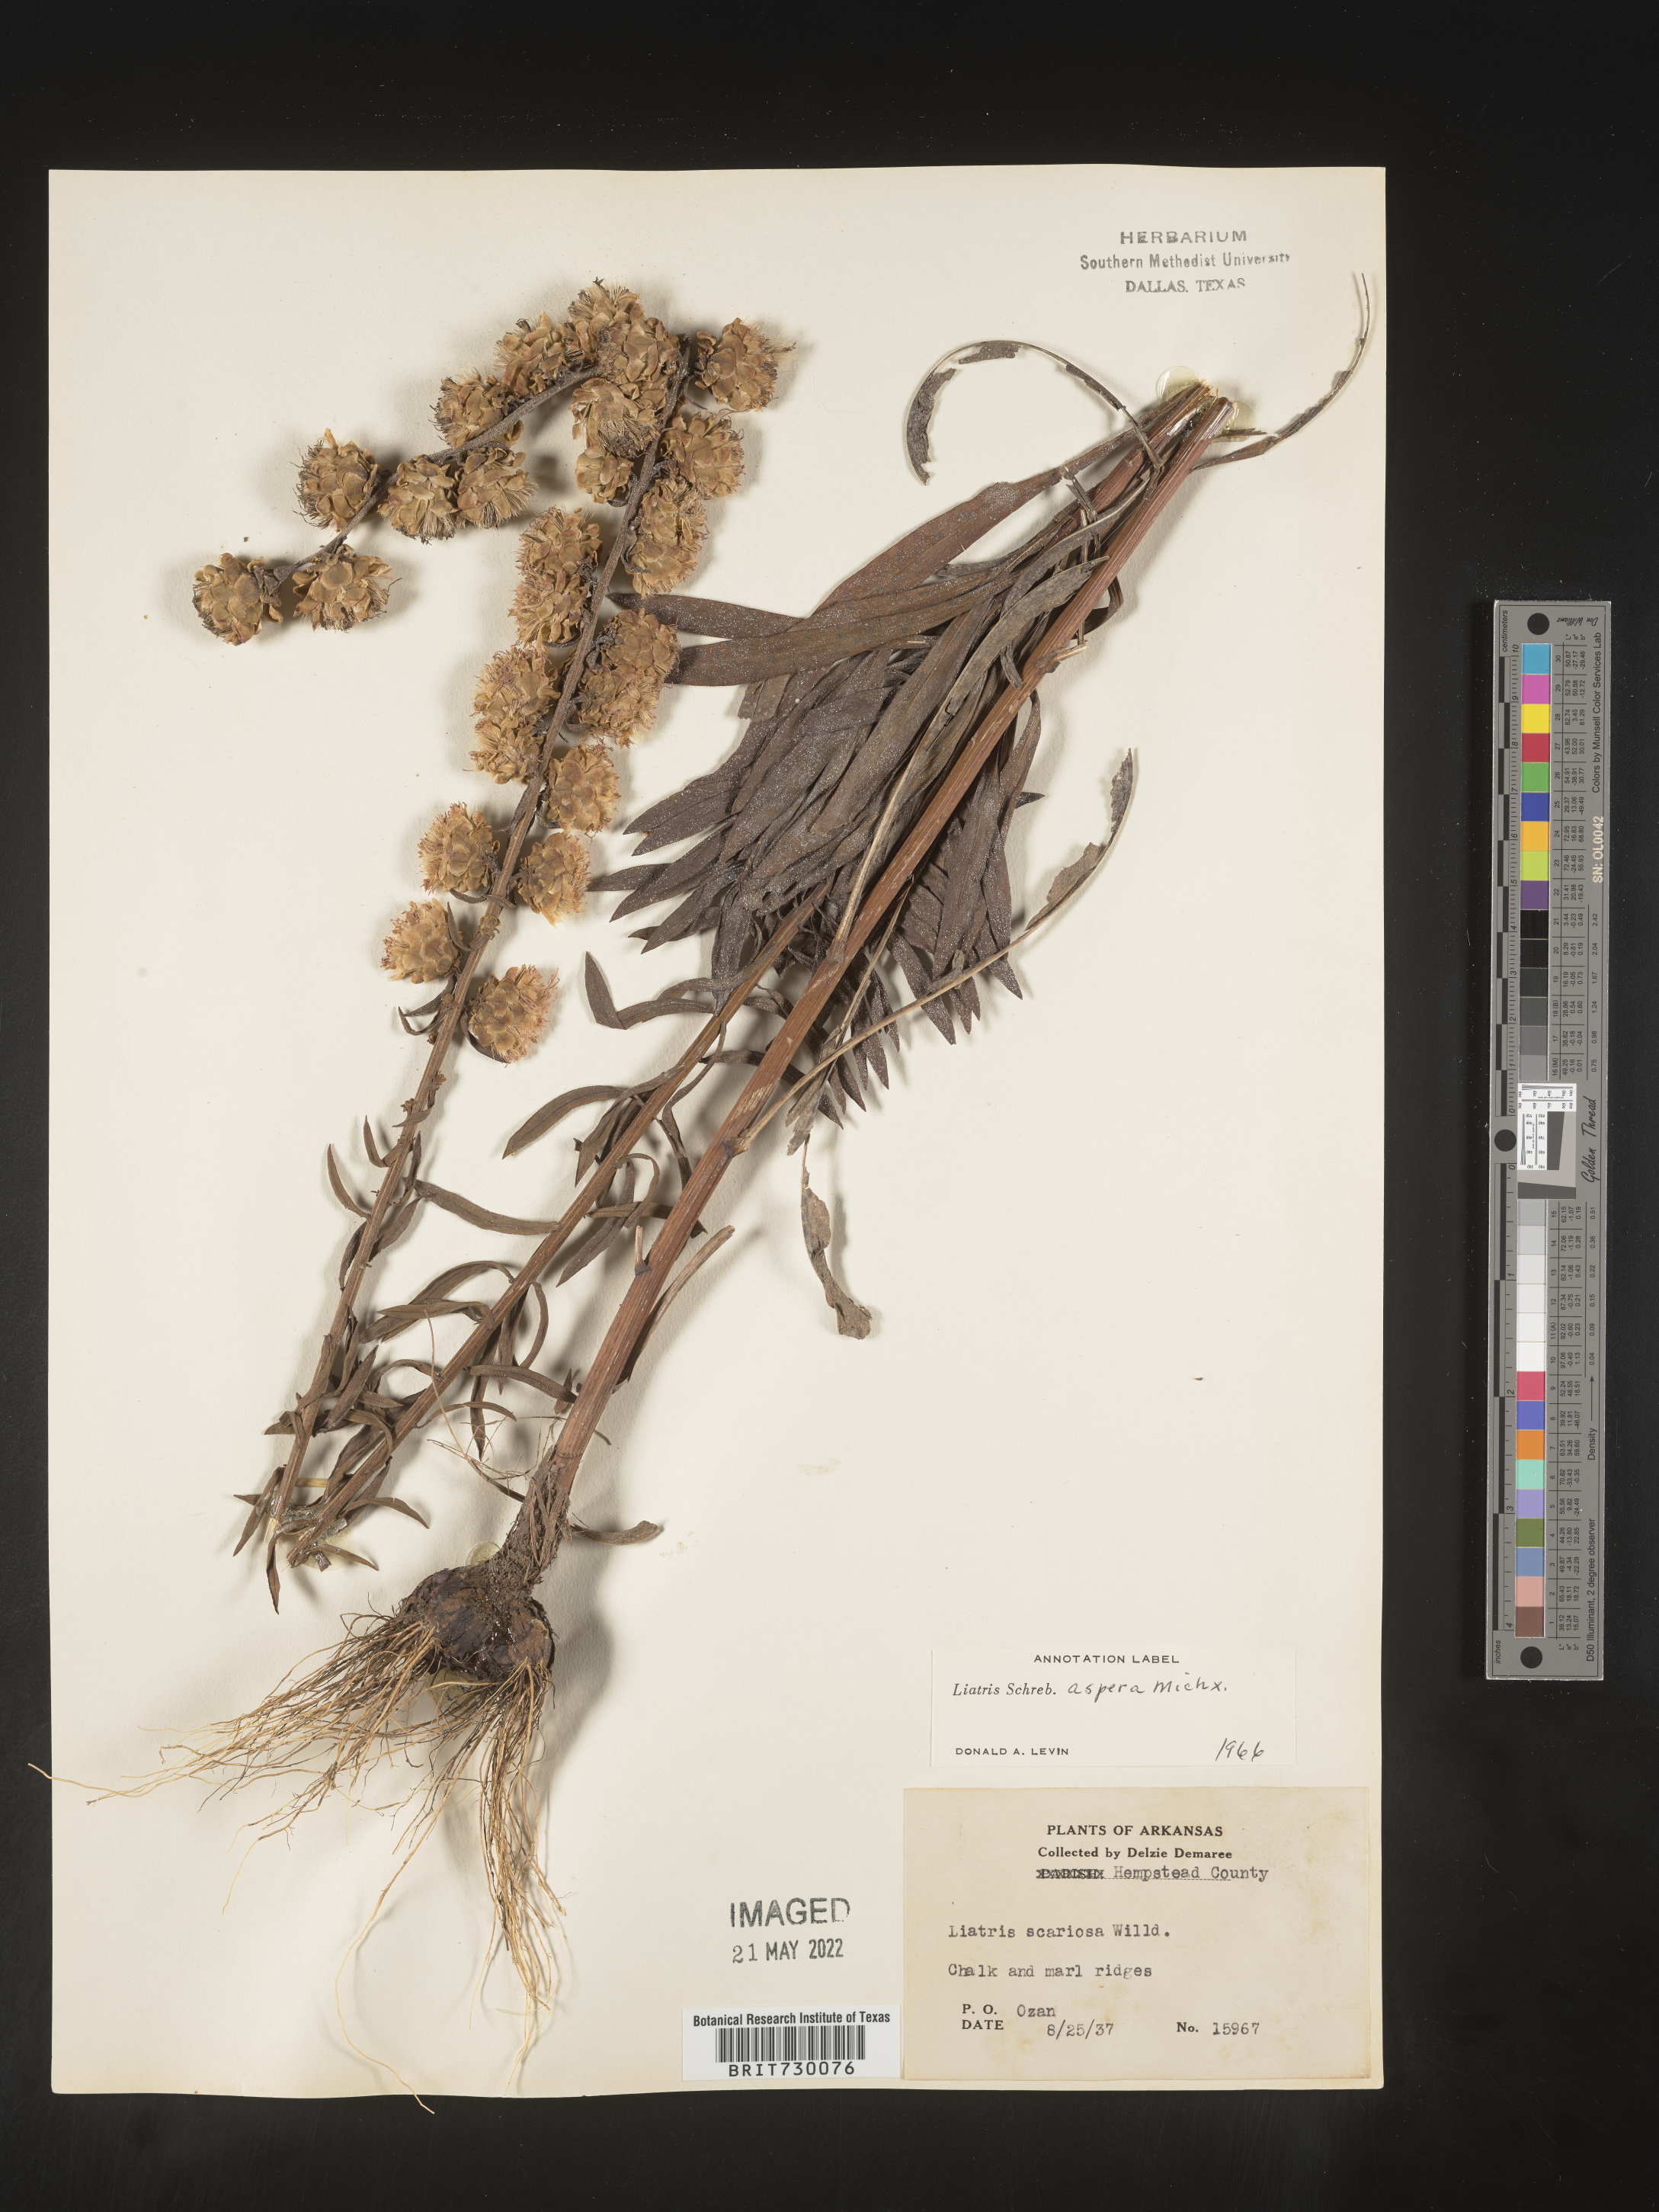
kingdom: Plantae
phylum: Tracheophyta
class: Magnoliopsida
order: Asterales
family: Asteraceae
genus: Liatris
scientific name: Liatris aspera
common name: Lacerate blazing-star
